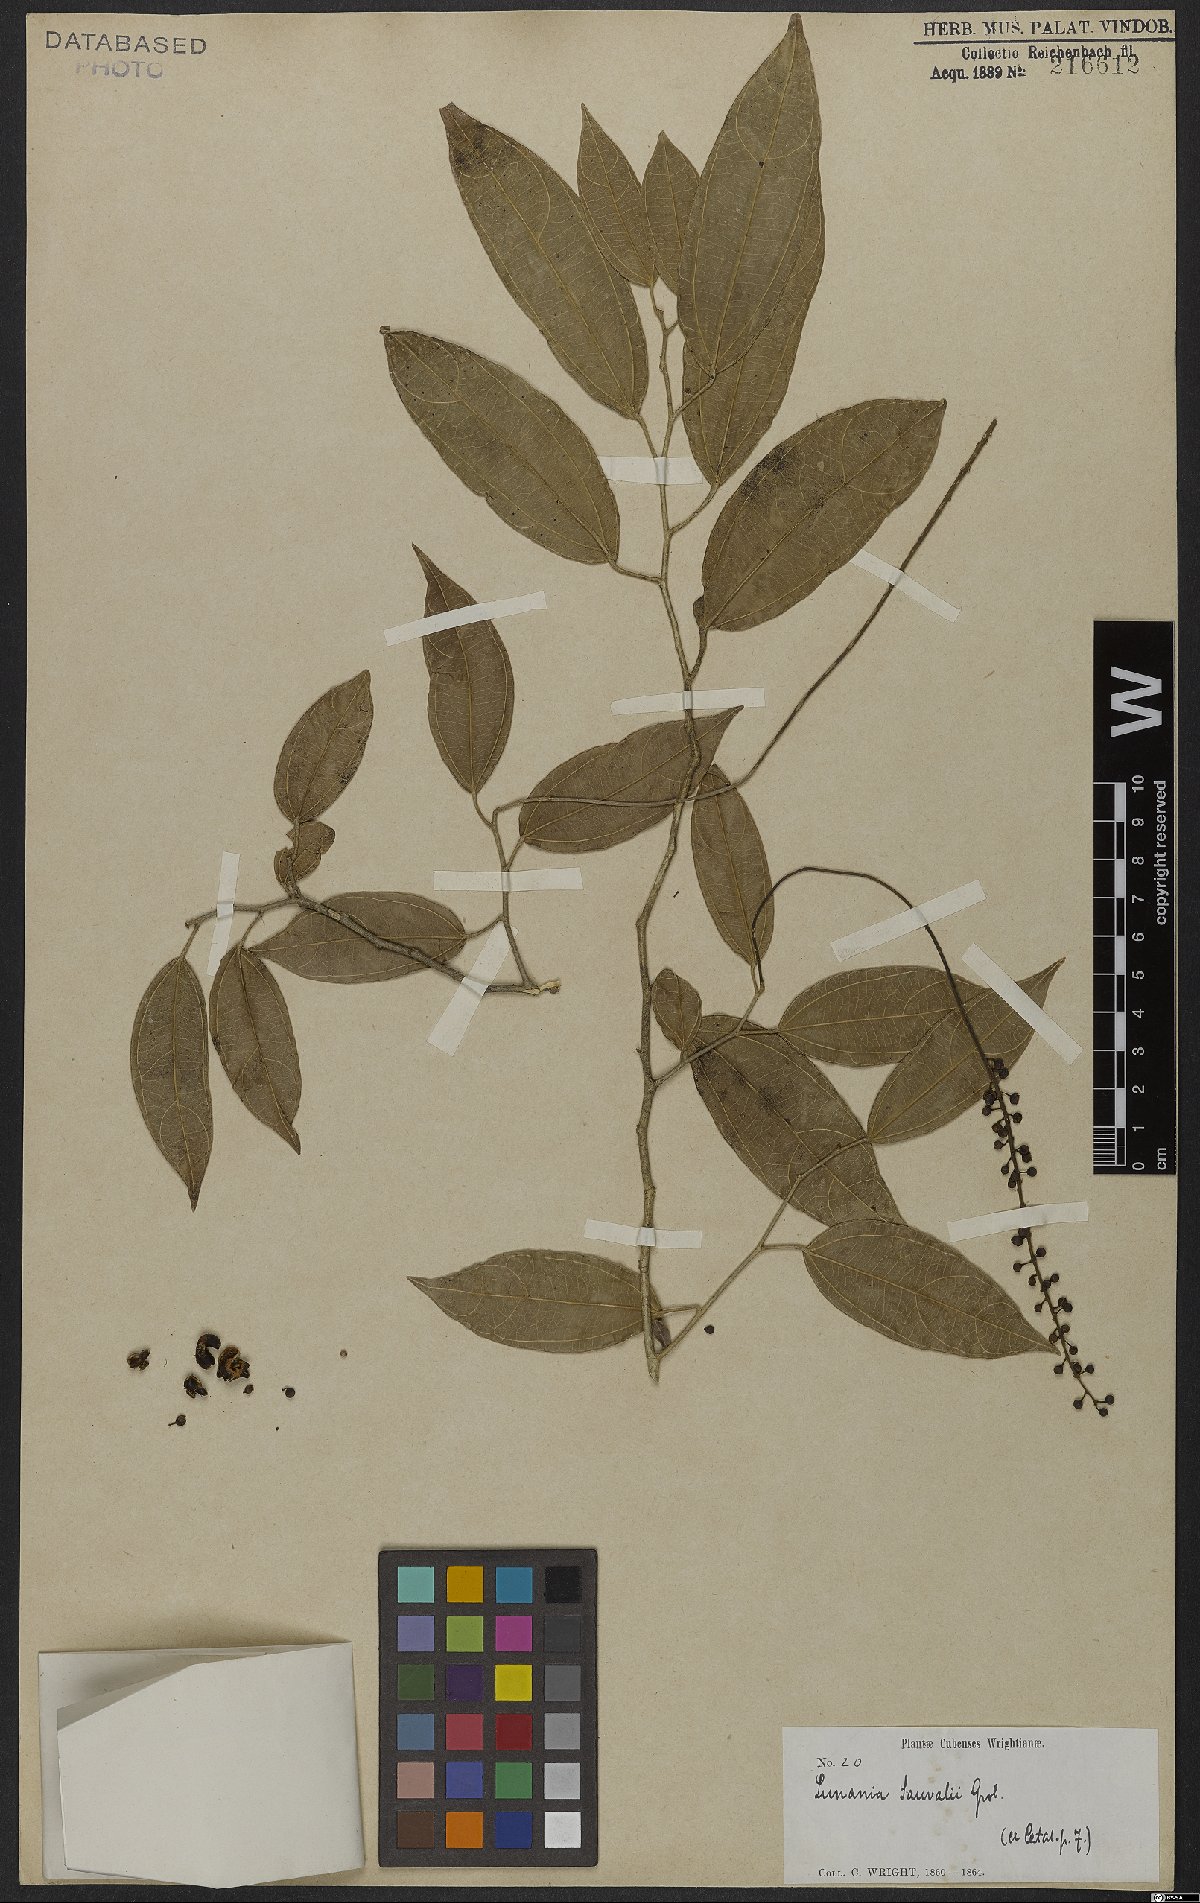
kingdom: Plantae
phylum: Tracheophyta
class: Magnoliopsida
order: Malpighiales
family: Salicaceae
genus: Lunania
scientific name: Lunania sauvallei
